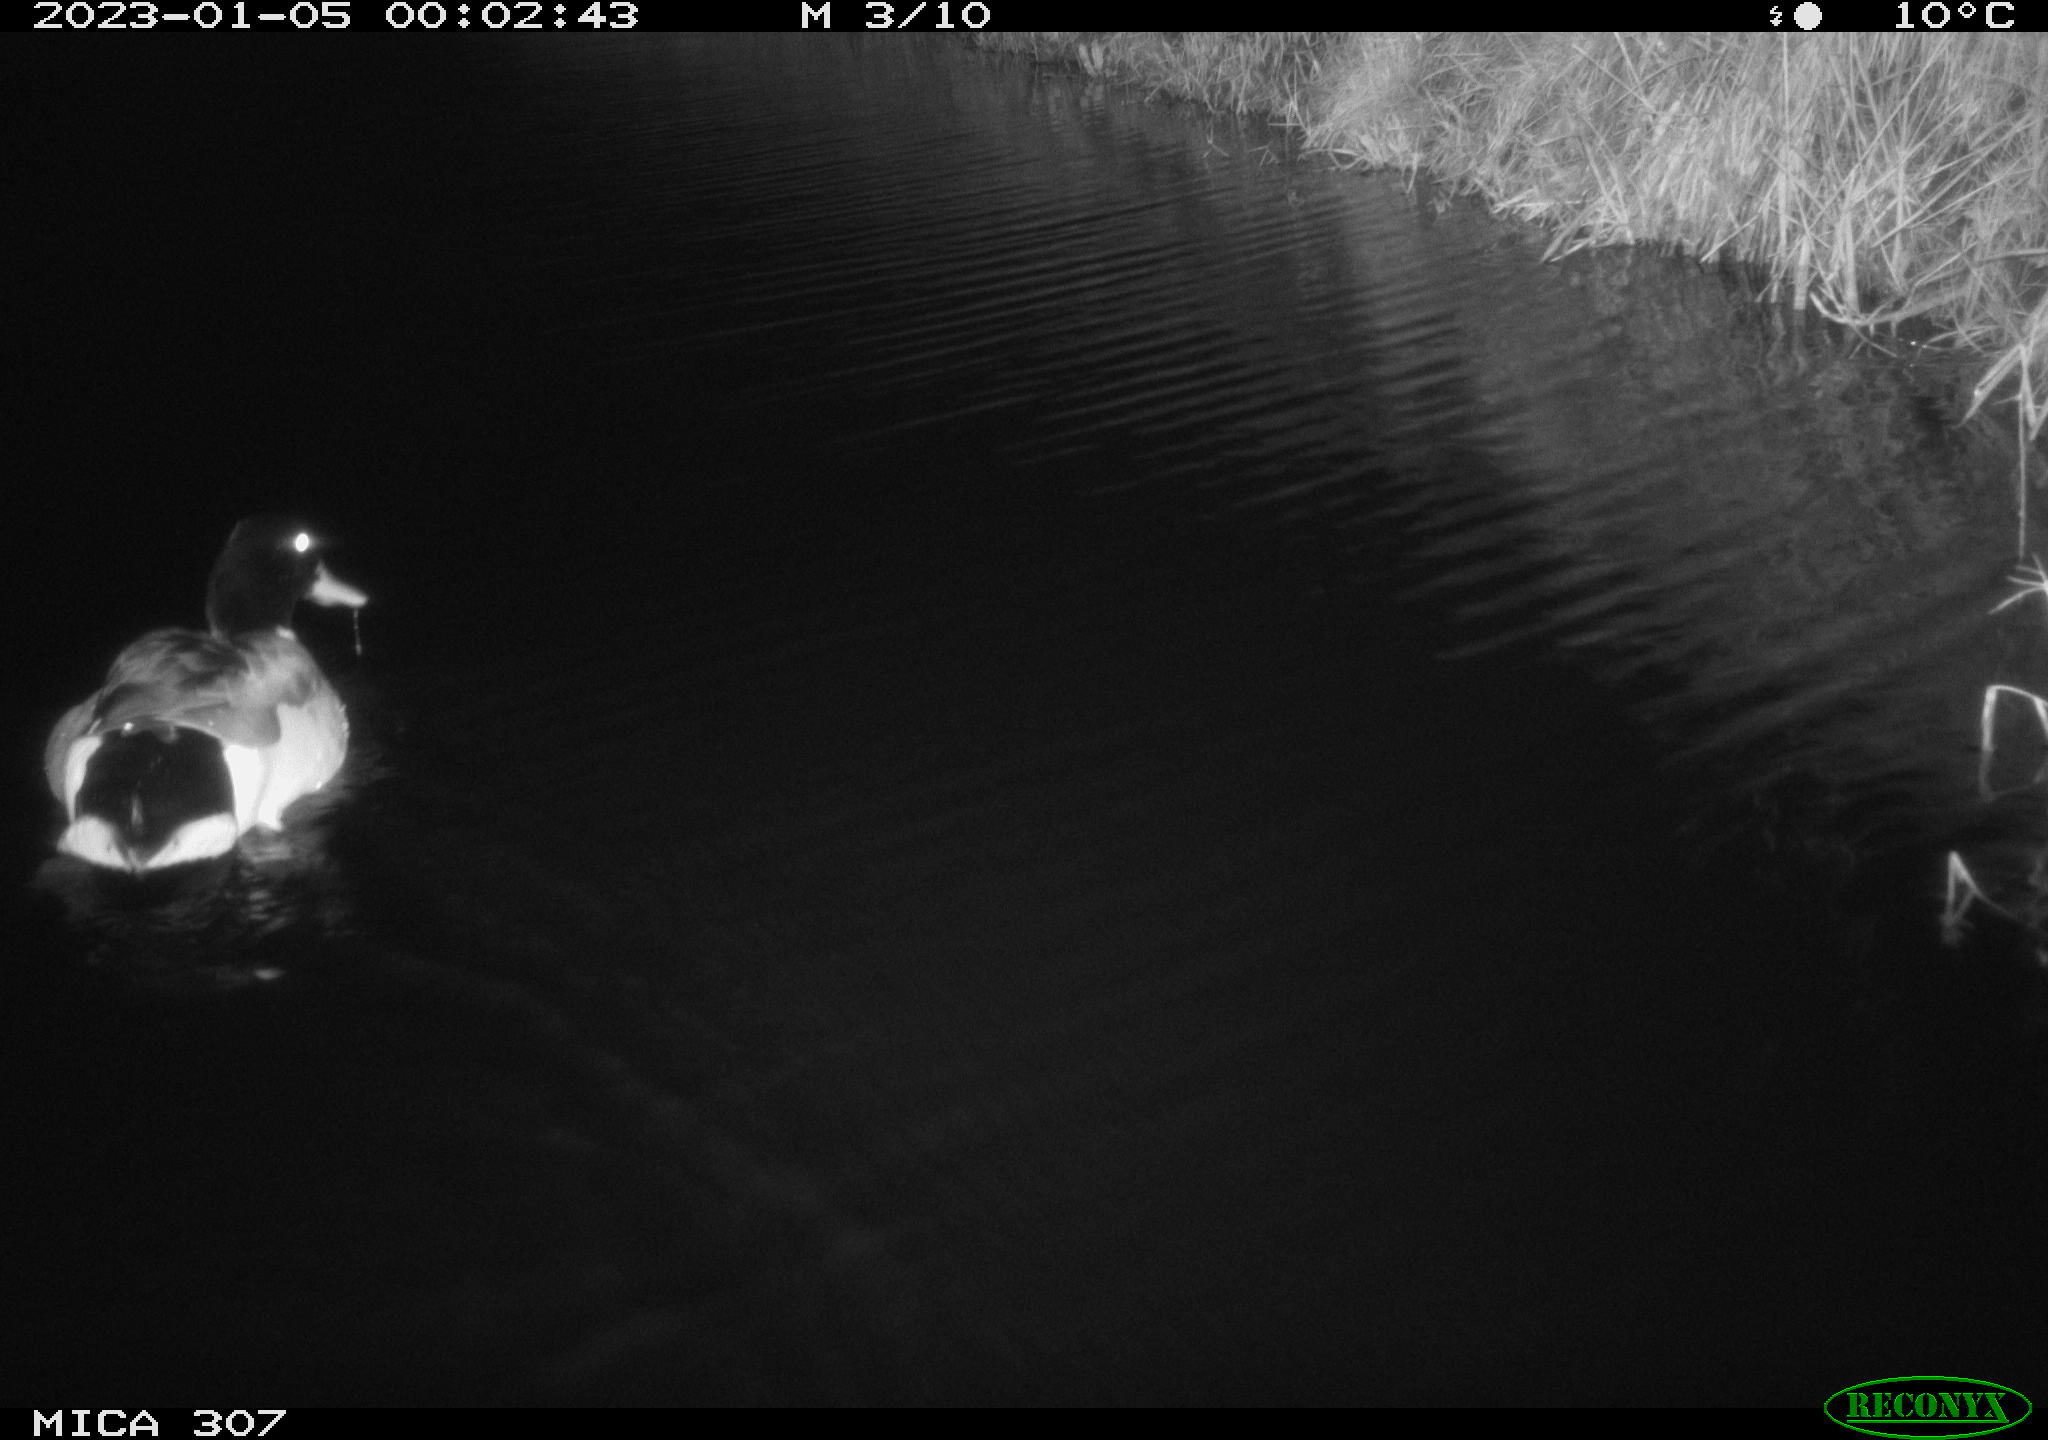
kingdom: Animalia
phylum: Chordata
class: Aves
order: Anseriformes
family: Anatidae
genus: Anas
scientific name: Anas
